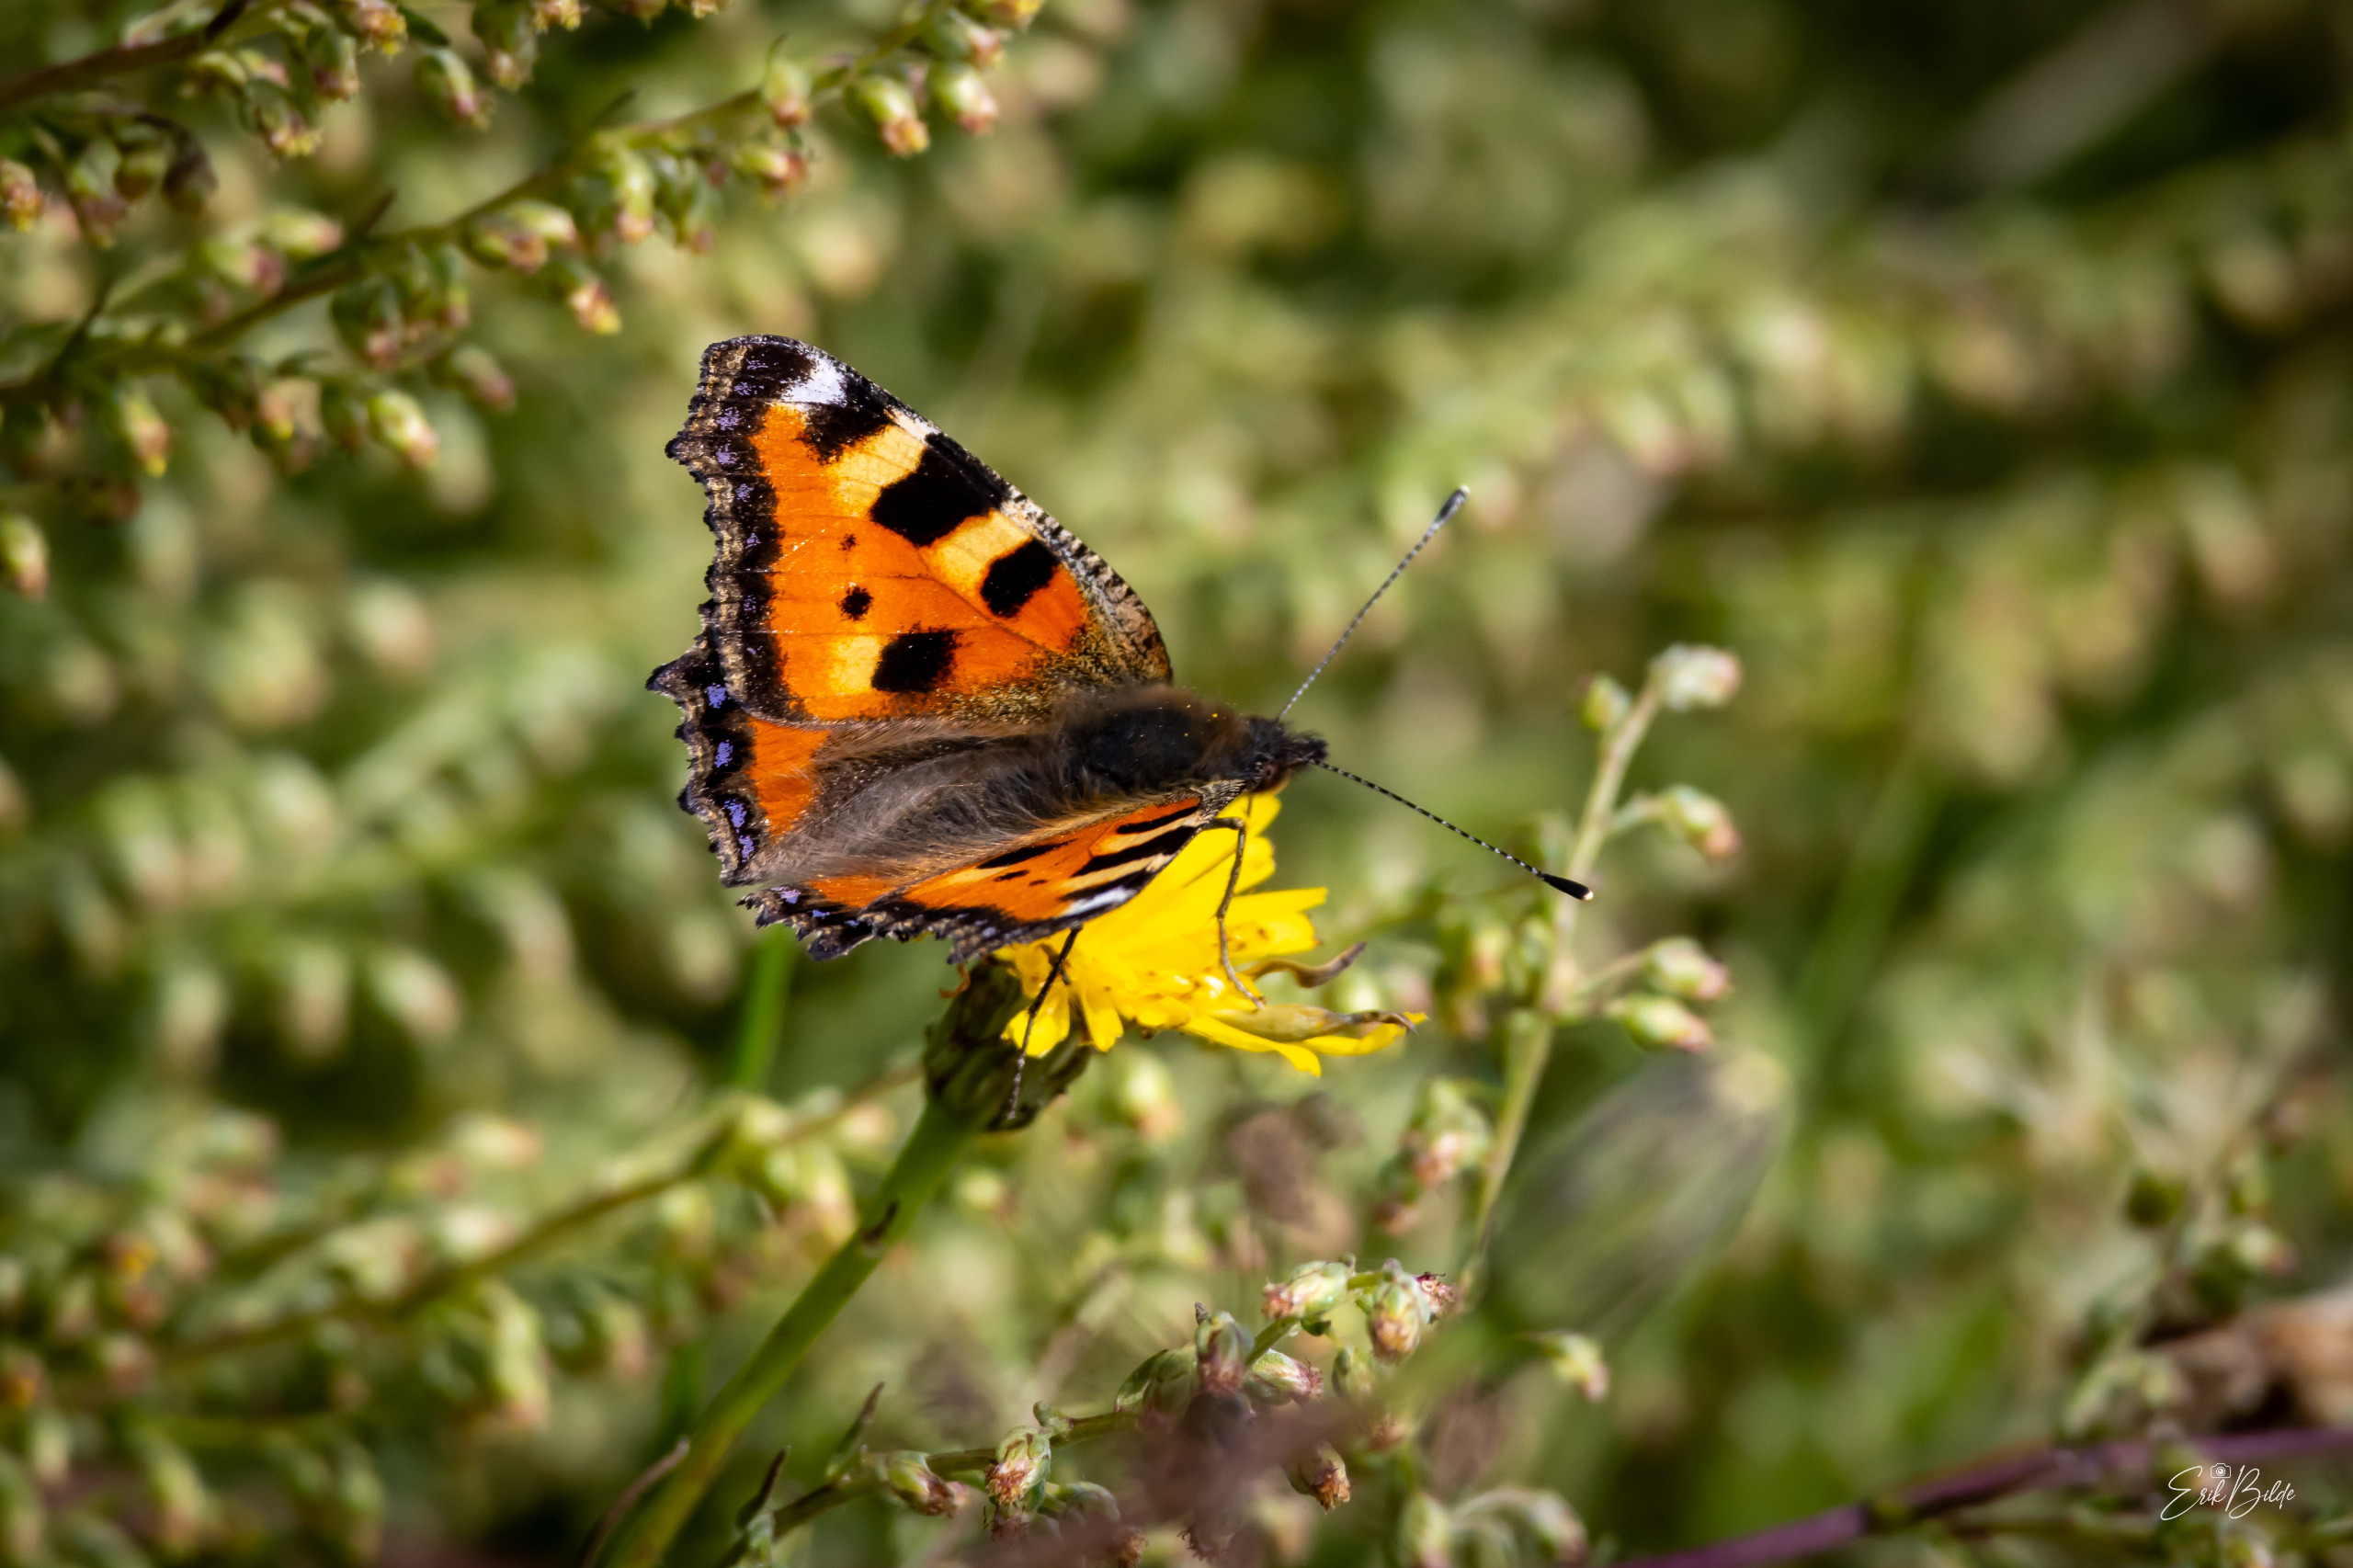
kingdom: Animalia
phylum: Arthropoda
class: Insecta
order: Lepidoptera
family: Nymphalidae
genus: Aglais
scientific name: Aglais urticae
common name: Nældens takvinge
